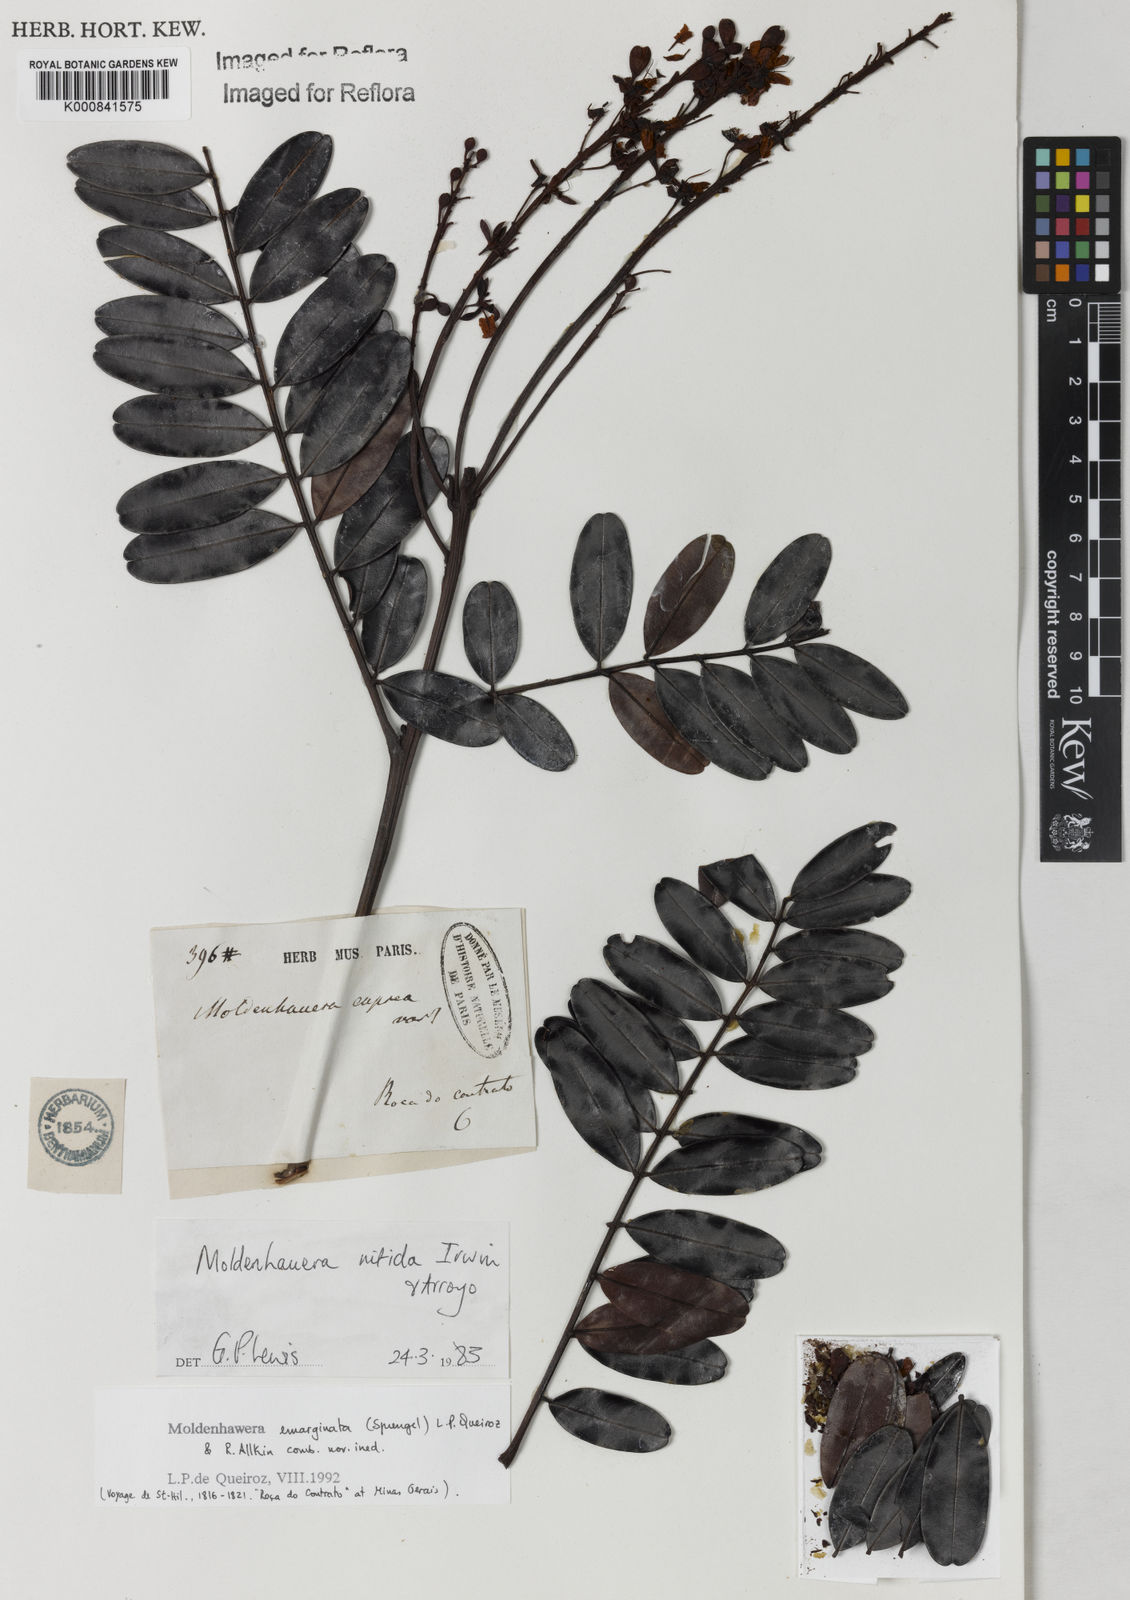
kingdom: Plantae
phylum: Tracheophyta
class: Magnoliopsida
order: Fabales
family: Fabaceae
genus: Moldenhawera
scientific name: Moldenhawera emarginata
